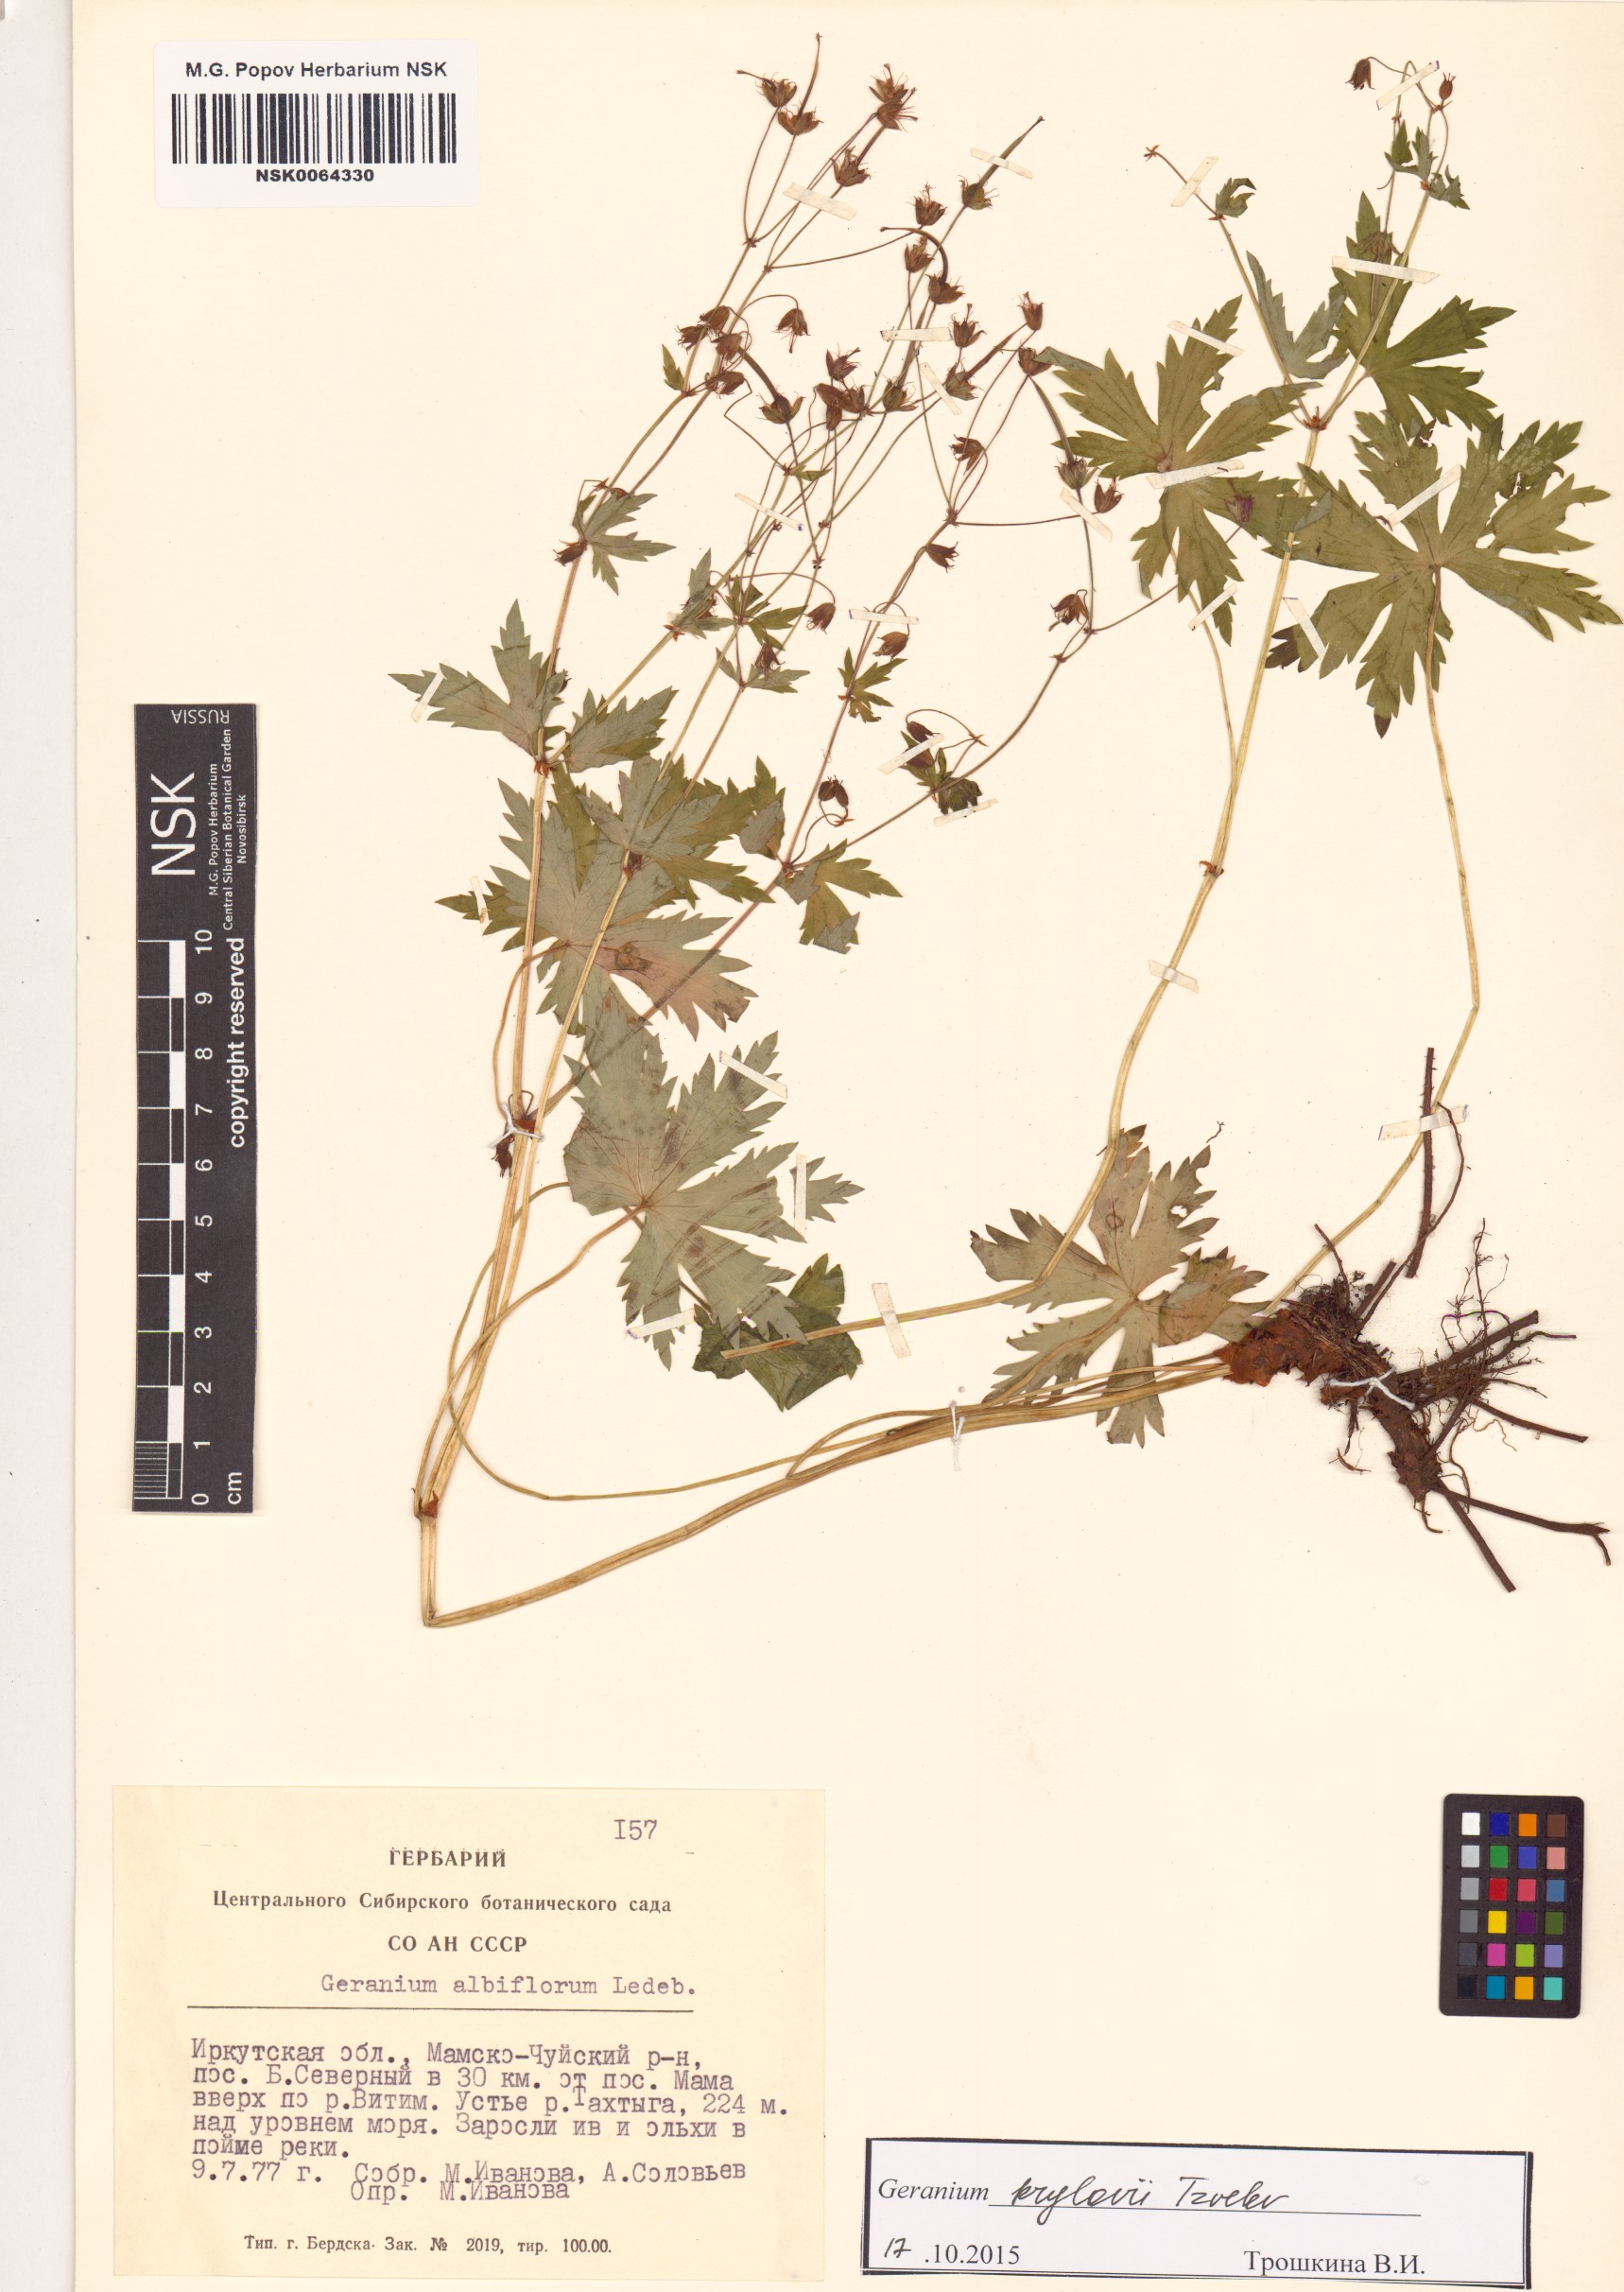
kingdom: Plantae
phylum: Tracheophyta
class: Magnoliopsida
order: Geraniales
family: Geraniaceae
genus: Geranium
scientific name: Geranium sylvaticum
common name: Wood crane's-bill
